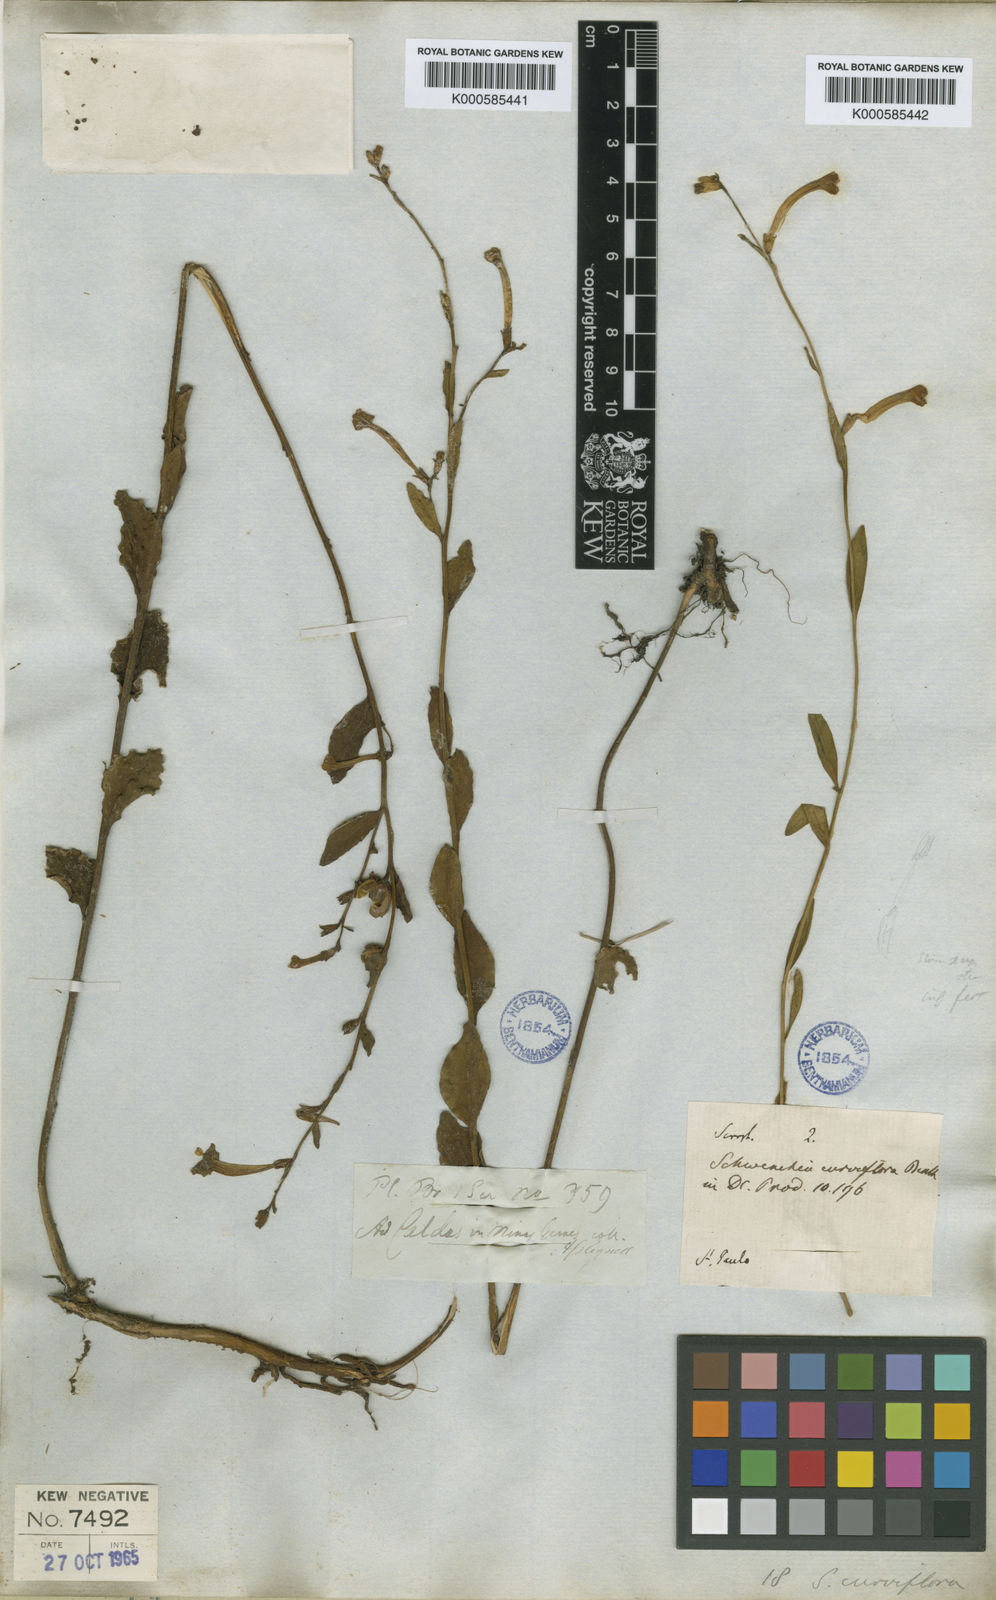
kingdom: Plantae
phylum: Tracheophyta
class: Magnoliopsida
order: Solanales
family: Solanaceae
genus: Schwenckia
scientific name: Schwenckia curviflora
